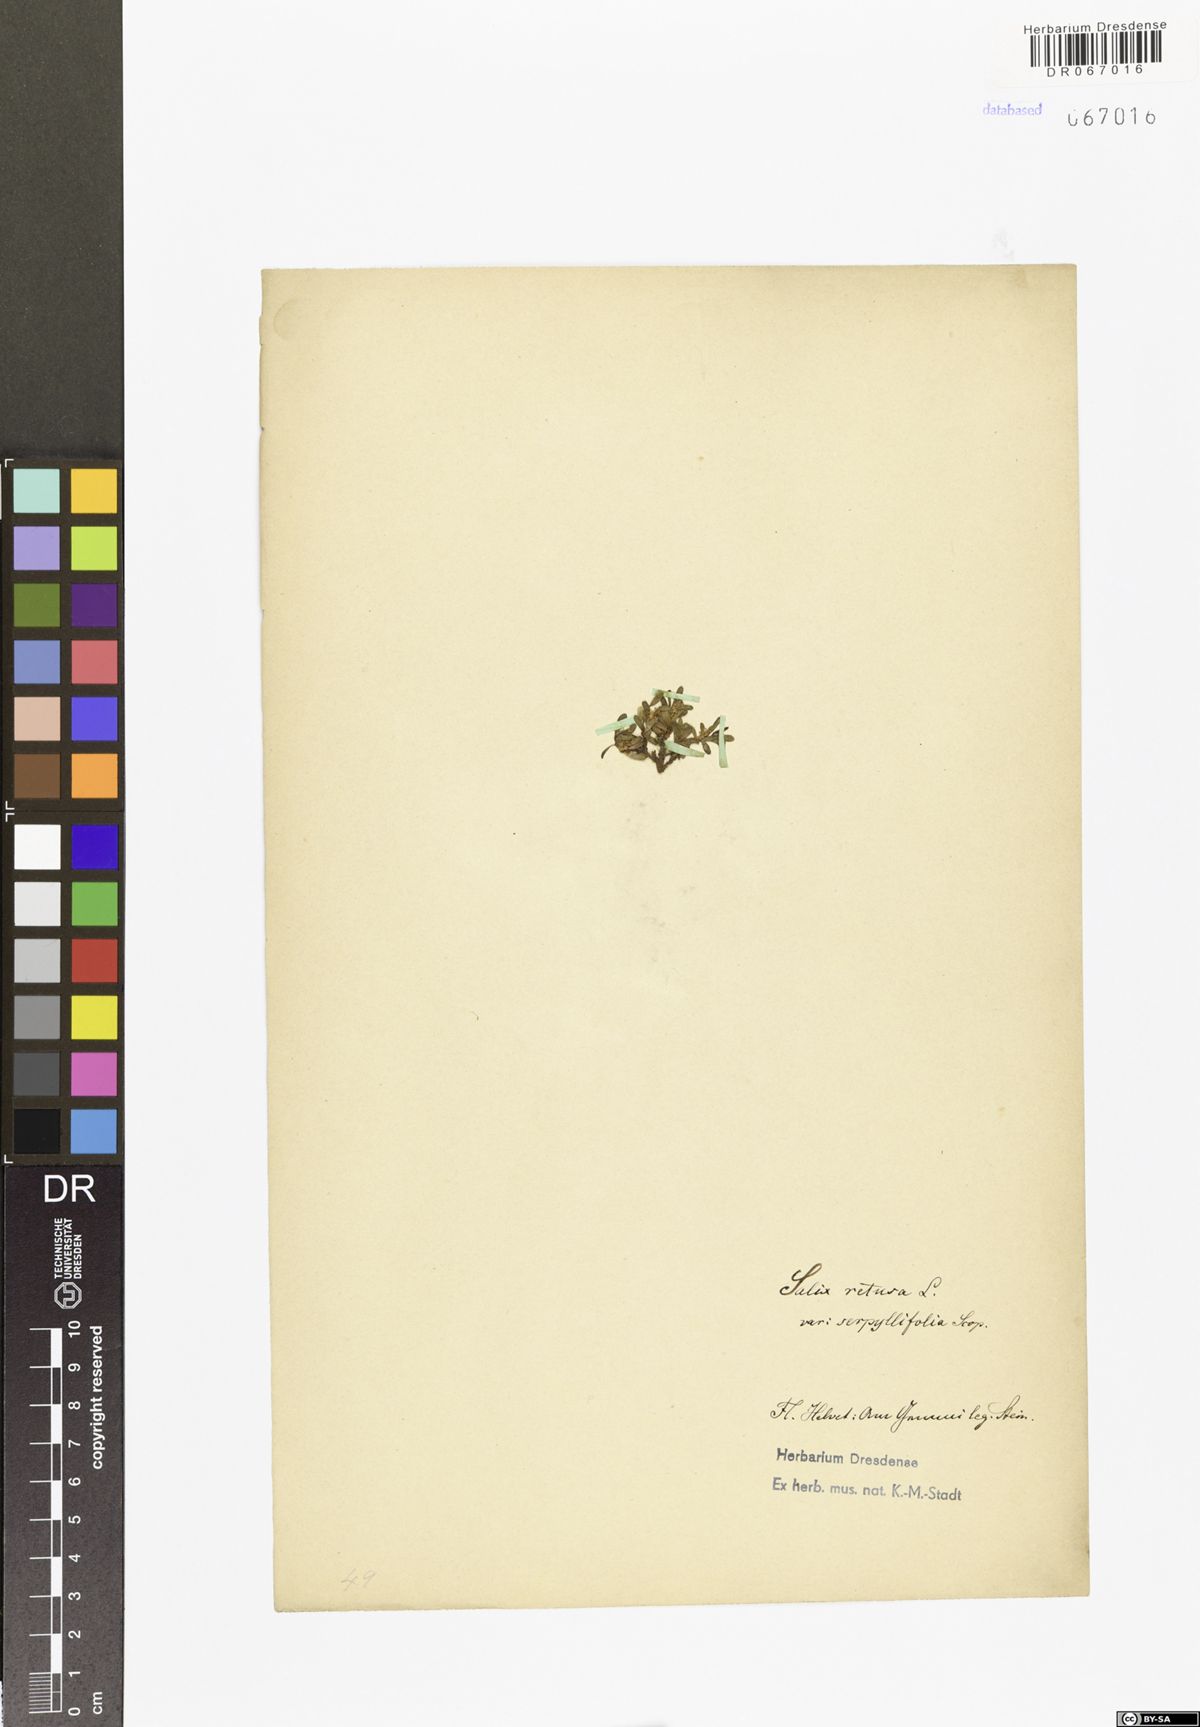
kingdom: Plantae
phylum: Tracheophyta
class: Magnoliopsida
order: Malpighiales
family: Salicaceae
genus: Salix
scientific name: Salix retusa
